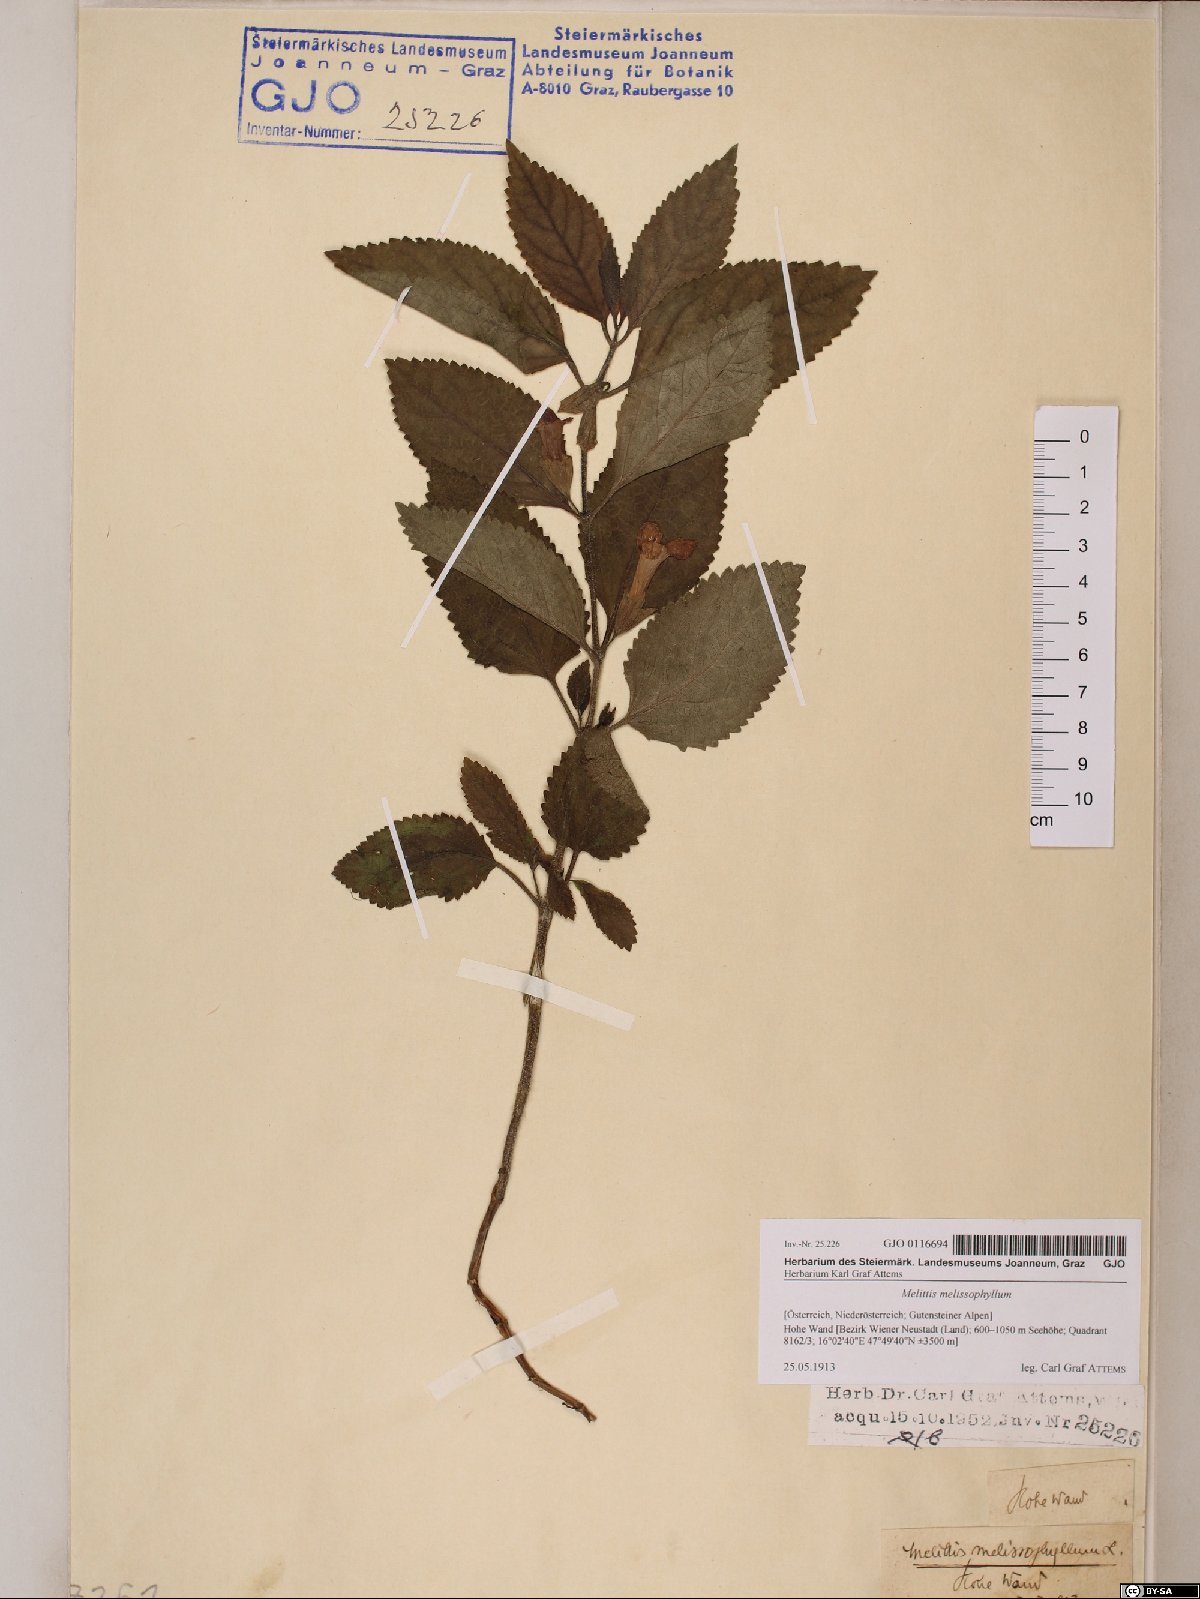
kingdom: Plantae
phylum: Tracheophyta
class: Magnoliopsida
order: Lamiales
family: Lamiaceae
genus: Melittis
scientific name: Melittis melissophyllum
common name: Bastard balm
